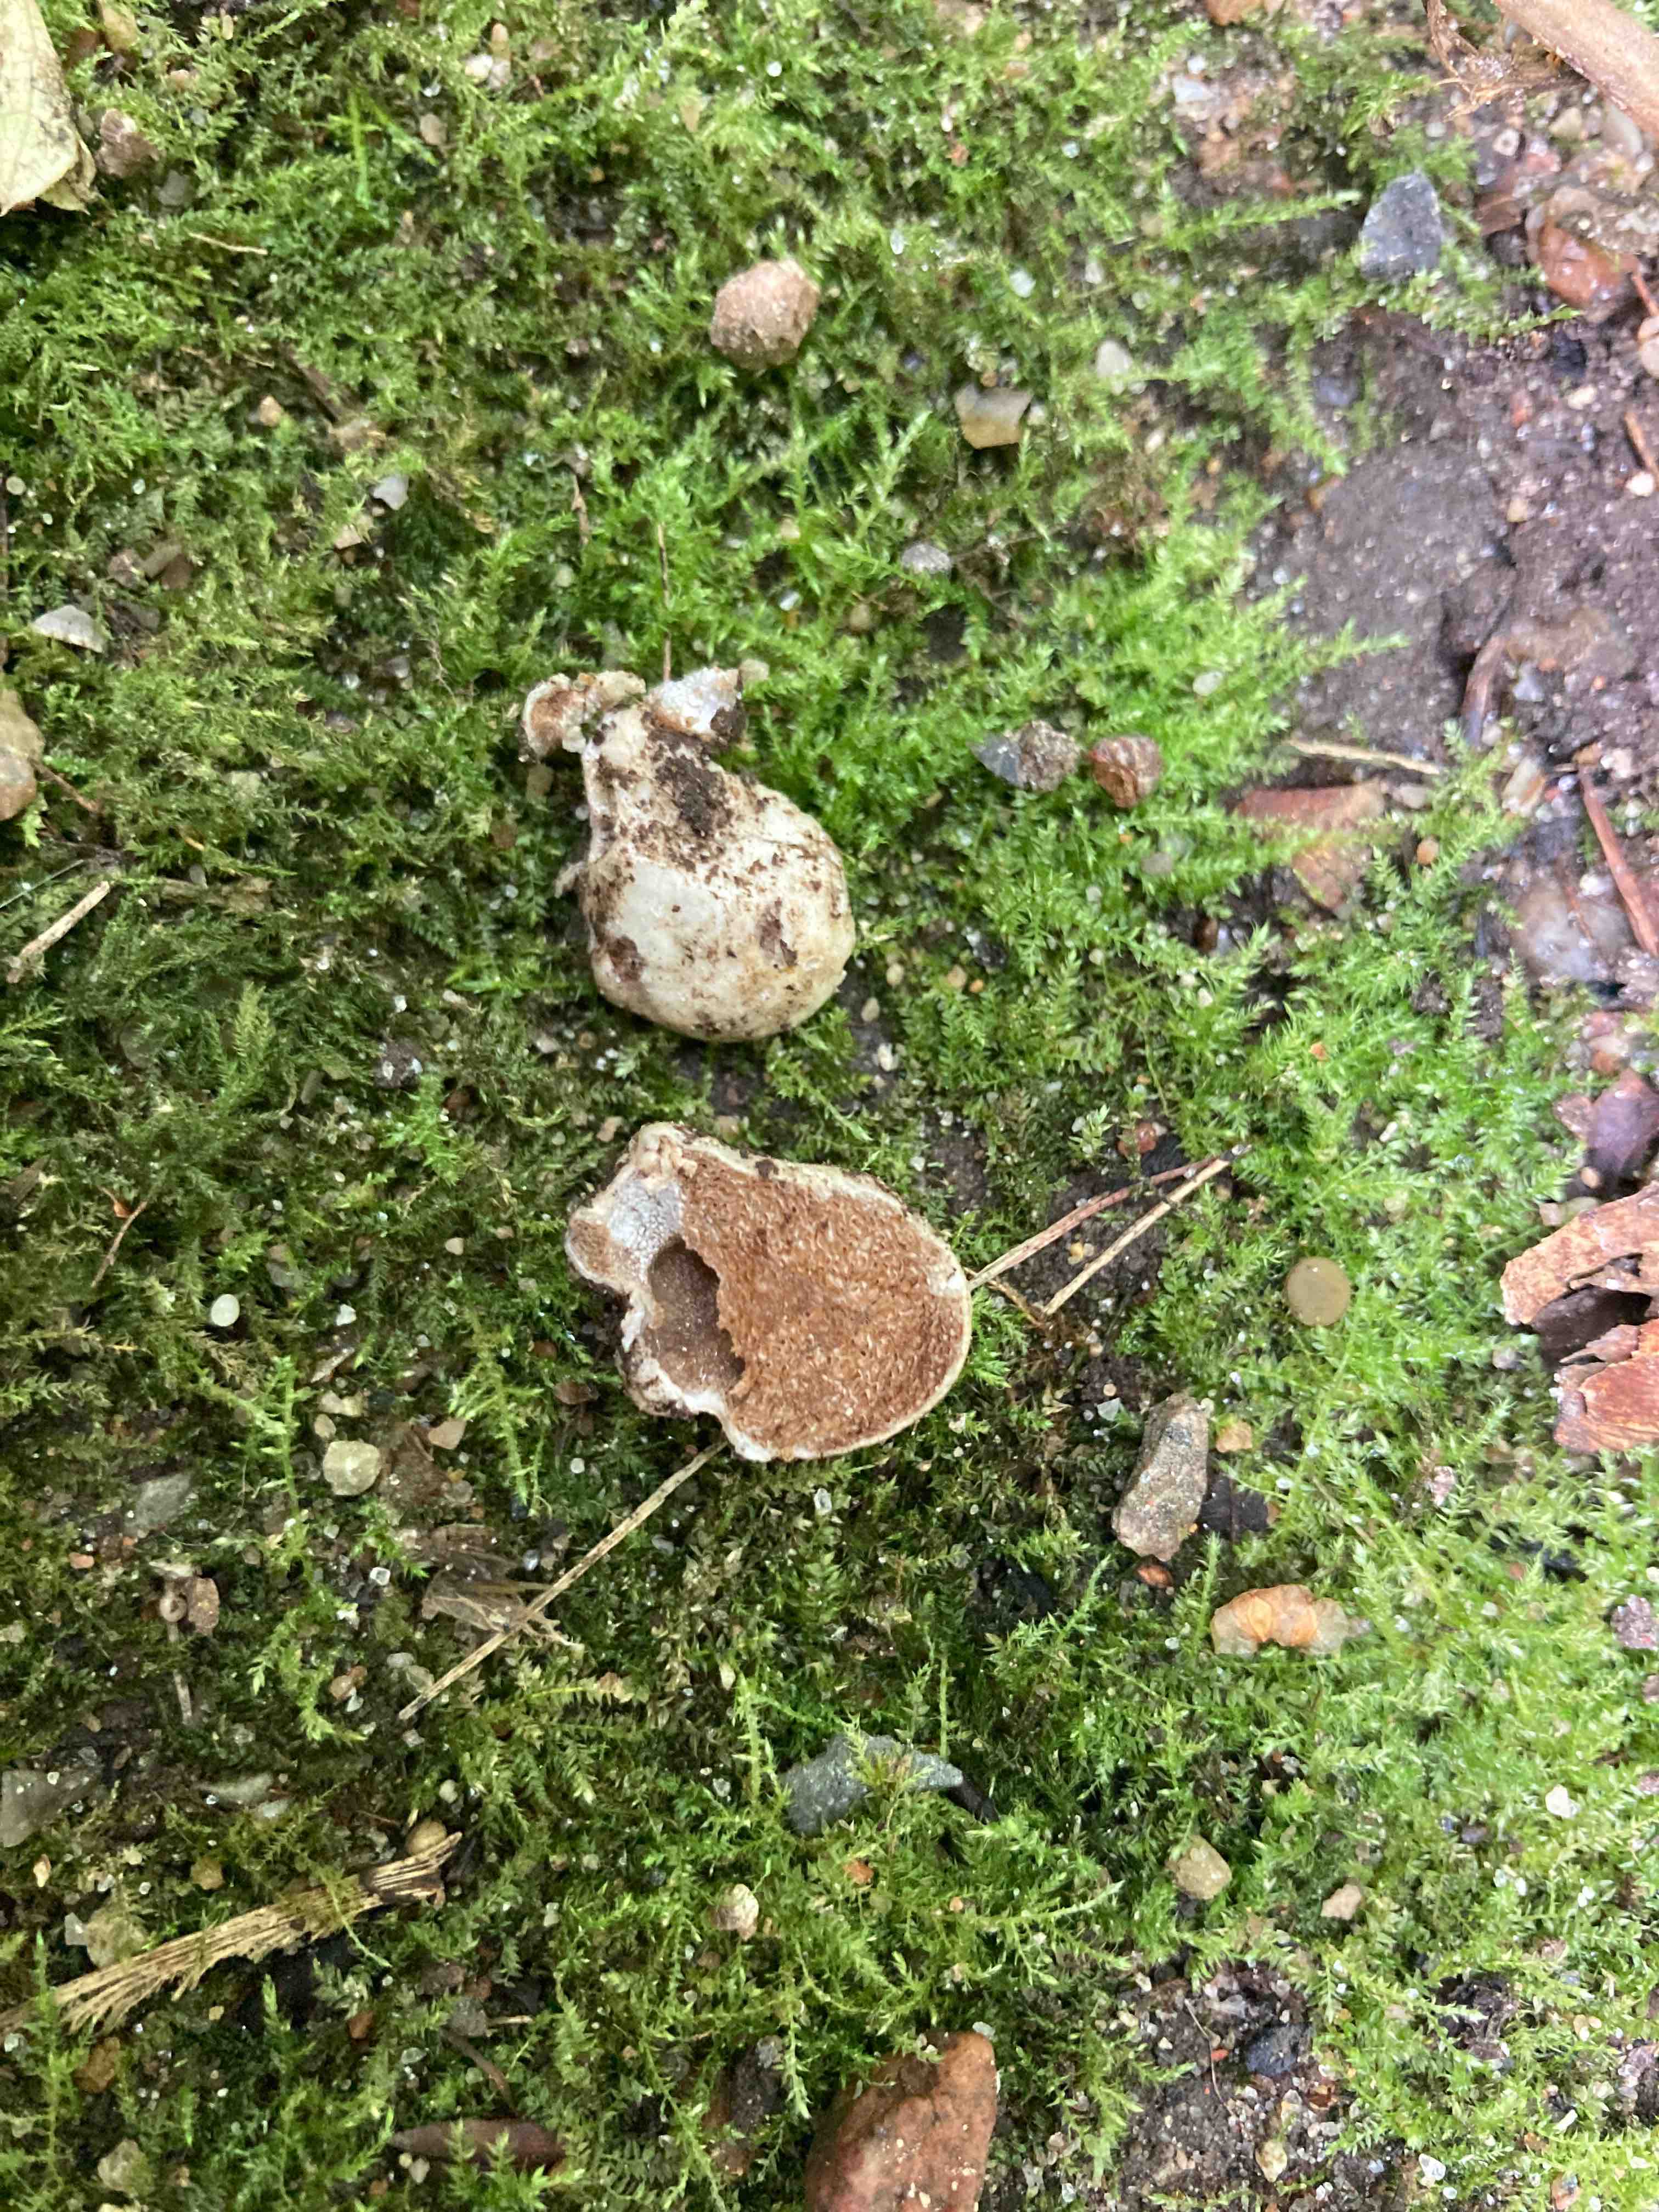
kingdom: Fungi
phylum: Basidiomycota
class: Agaricomycetes
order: Agaricales
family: Cortinariaceae
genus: Protoglossum
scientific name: Protoglossum niveum
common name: hvid knoldtrøffel
